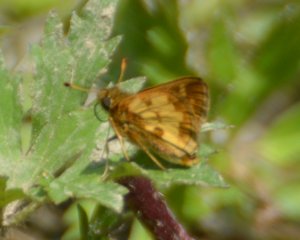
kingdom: Animalia
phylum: Arthropoda
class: Insecta
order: Lepidoptera
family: Hesperiidae
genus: Polites
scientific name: Polites coras
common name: Peck's Skipper
